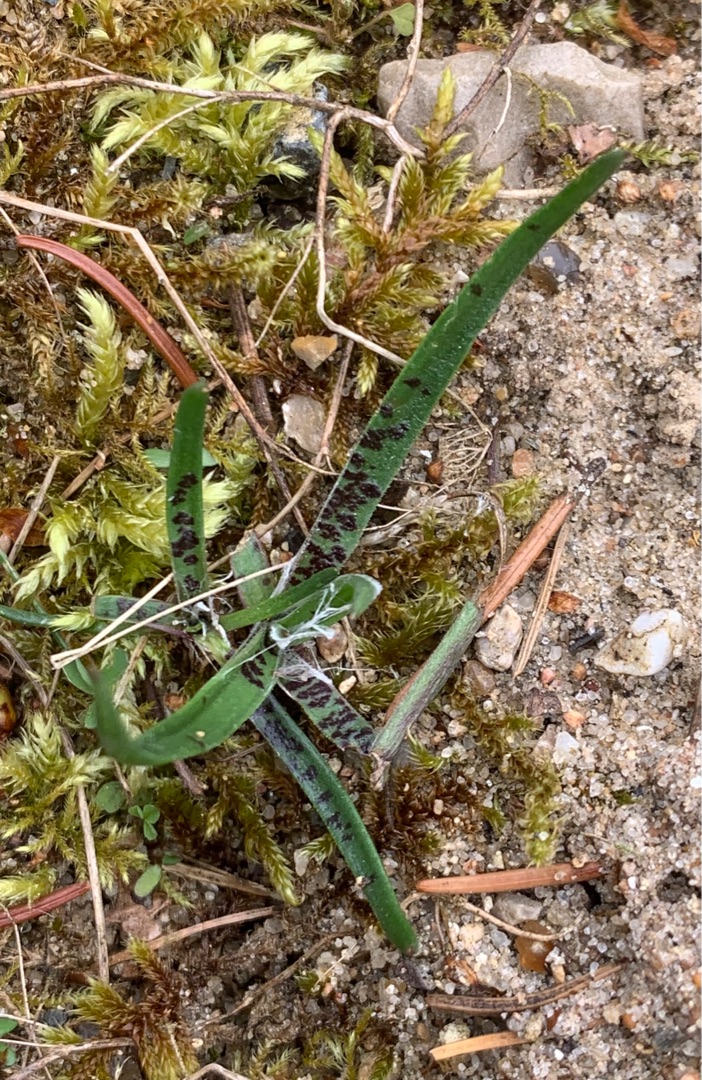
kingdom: Plantae
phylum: Tracheophyta
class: Liliopsida
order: Asparagales
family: Orchidaceae
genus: Dactylorhiza
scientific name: Dactylorhiza maculata
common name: Plettet gøgeurt
